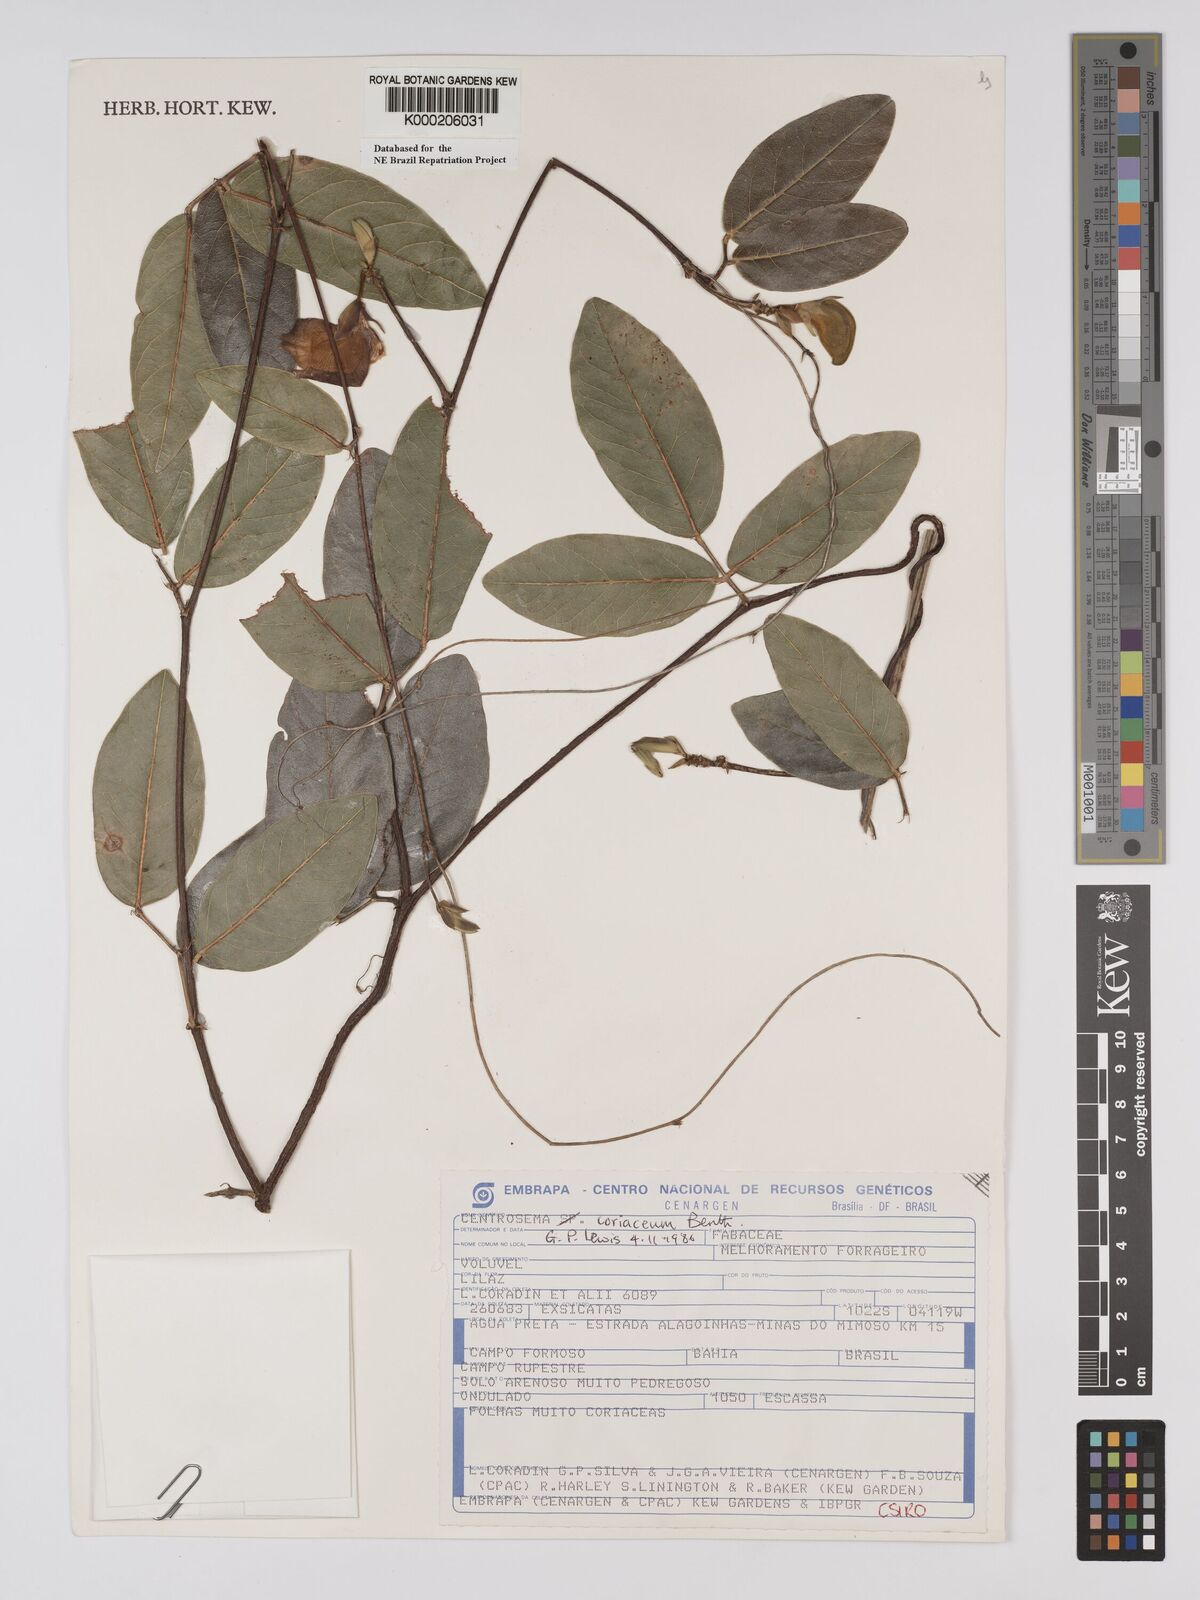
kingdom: Plantae
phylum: Tracheophyta
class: Magnoliopsida
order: Fabales
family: Fabaceae
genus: Centrosema
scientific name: Centrosema coriaceum
